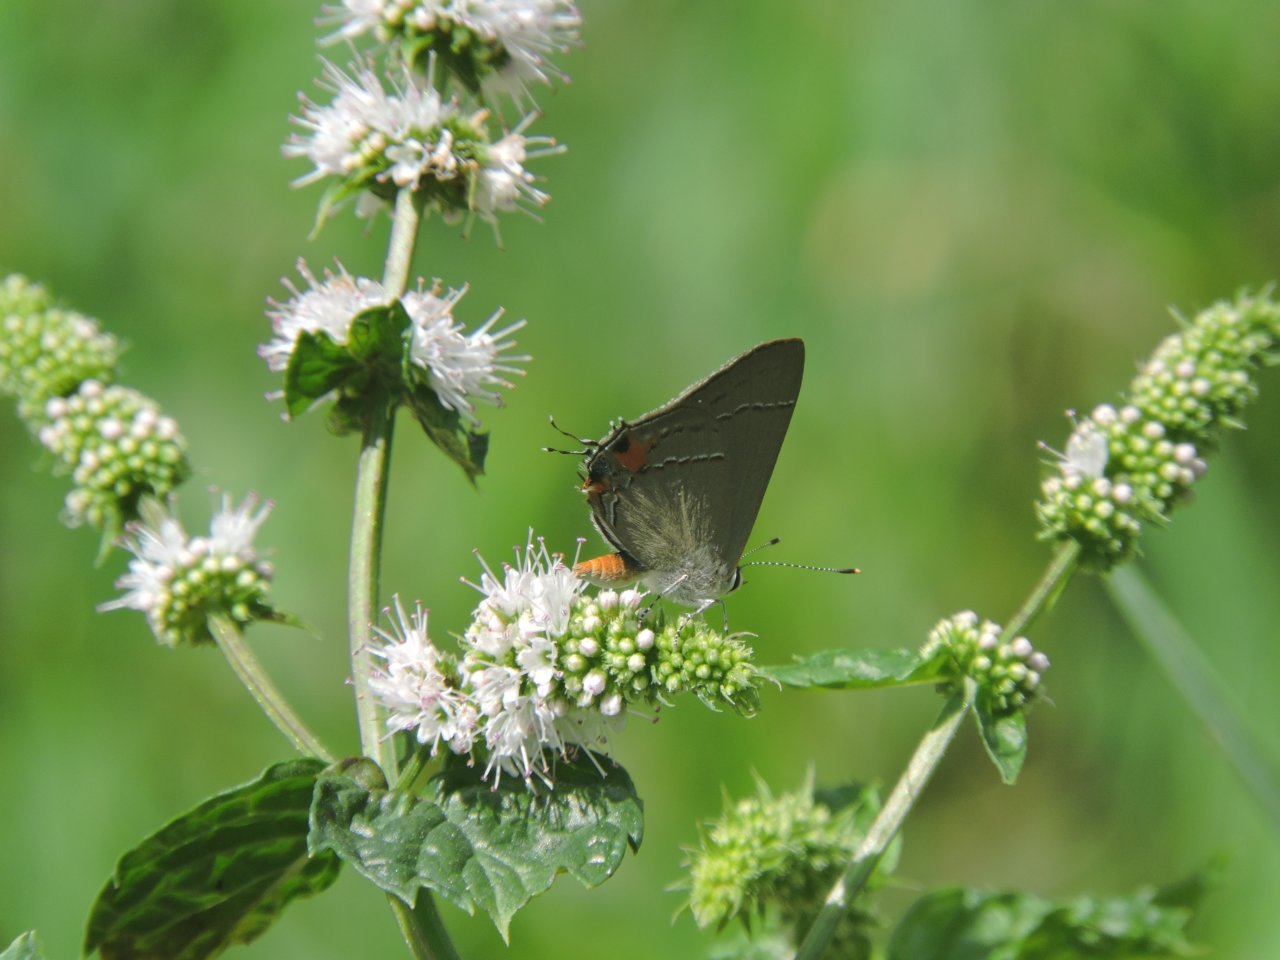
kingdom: Animalia
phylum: Arthropoda
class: Insecta
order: Lepidoptera
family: Lycaenidae
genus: Strymon
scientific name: Strymon melinus
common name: Gray Hairstreak
